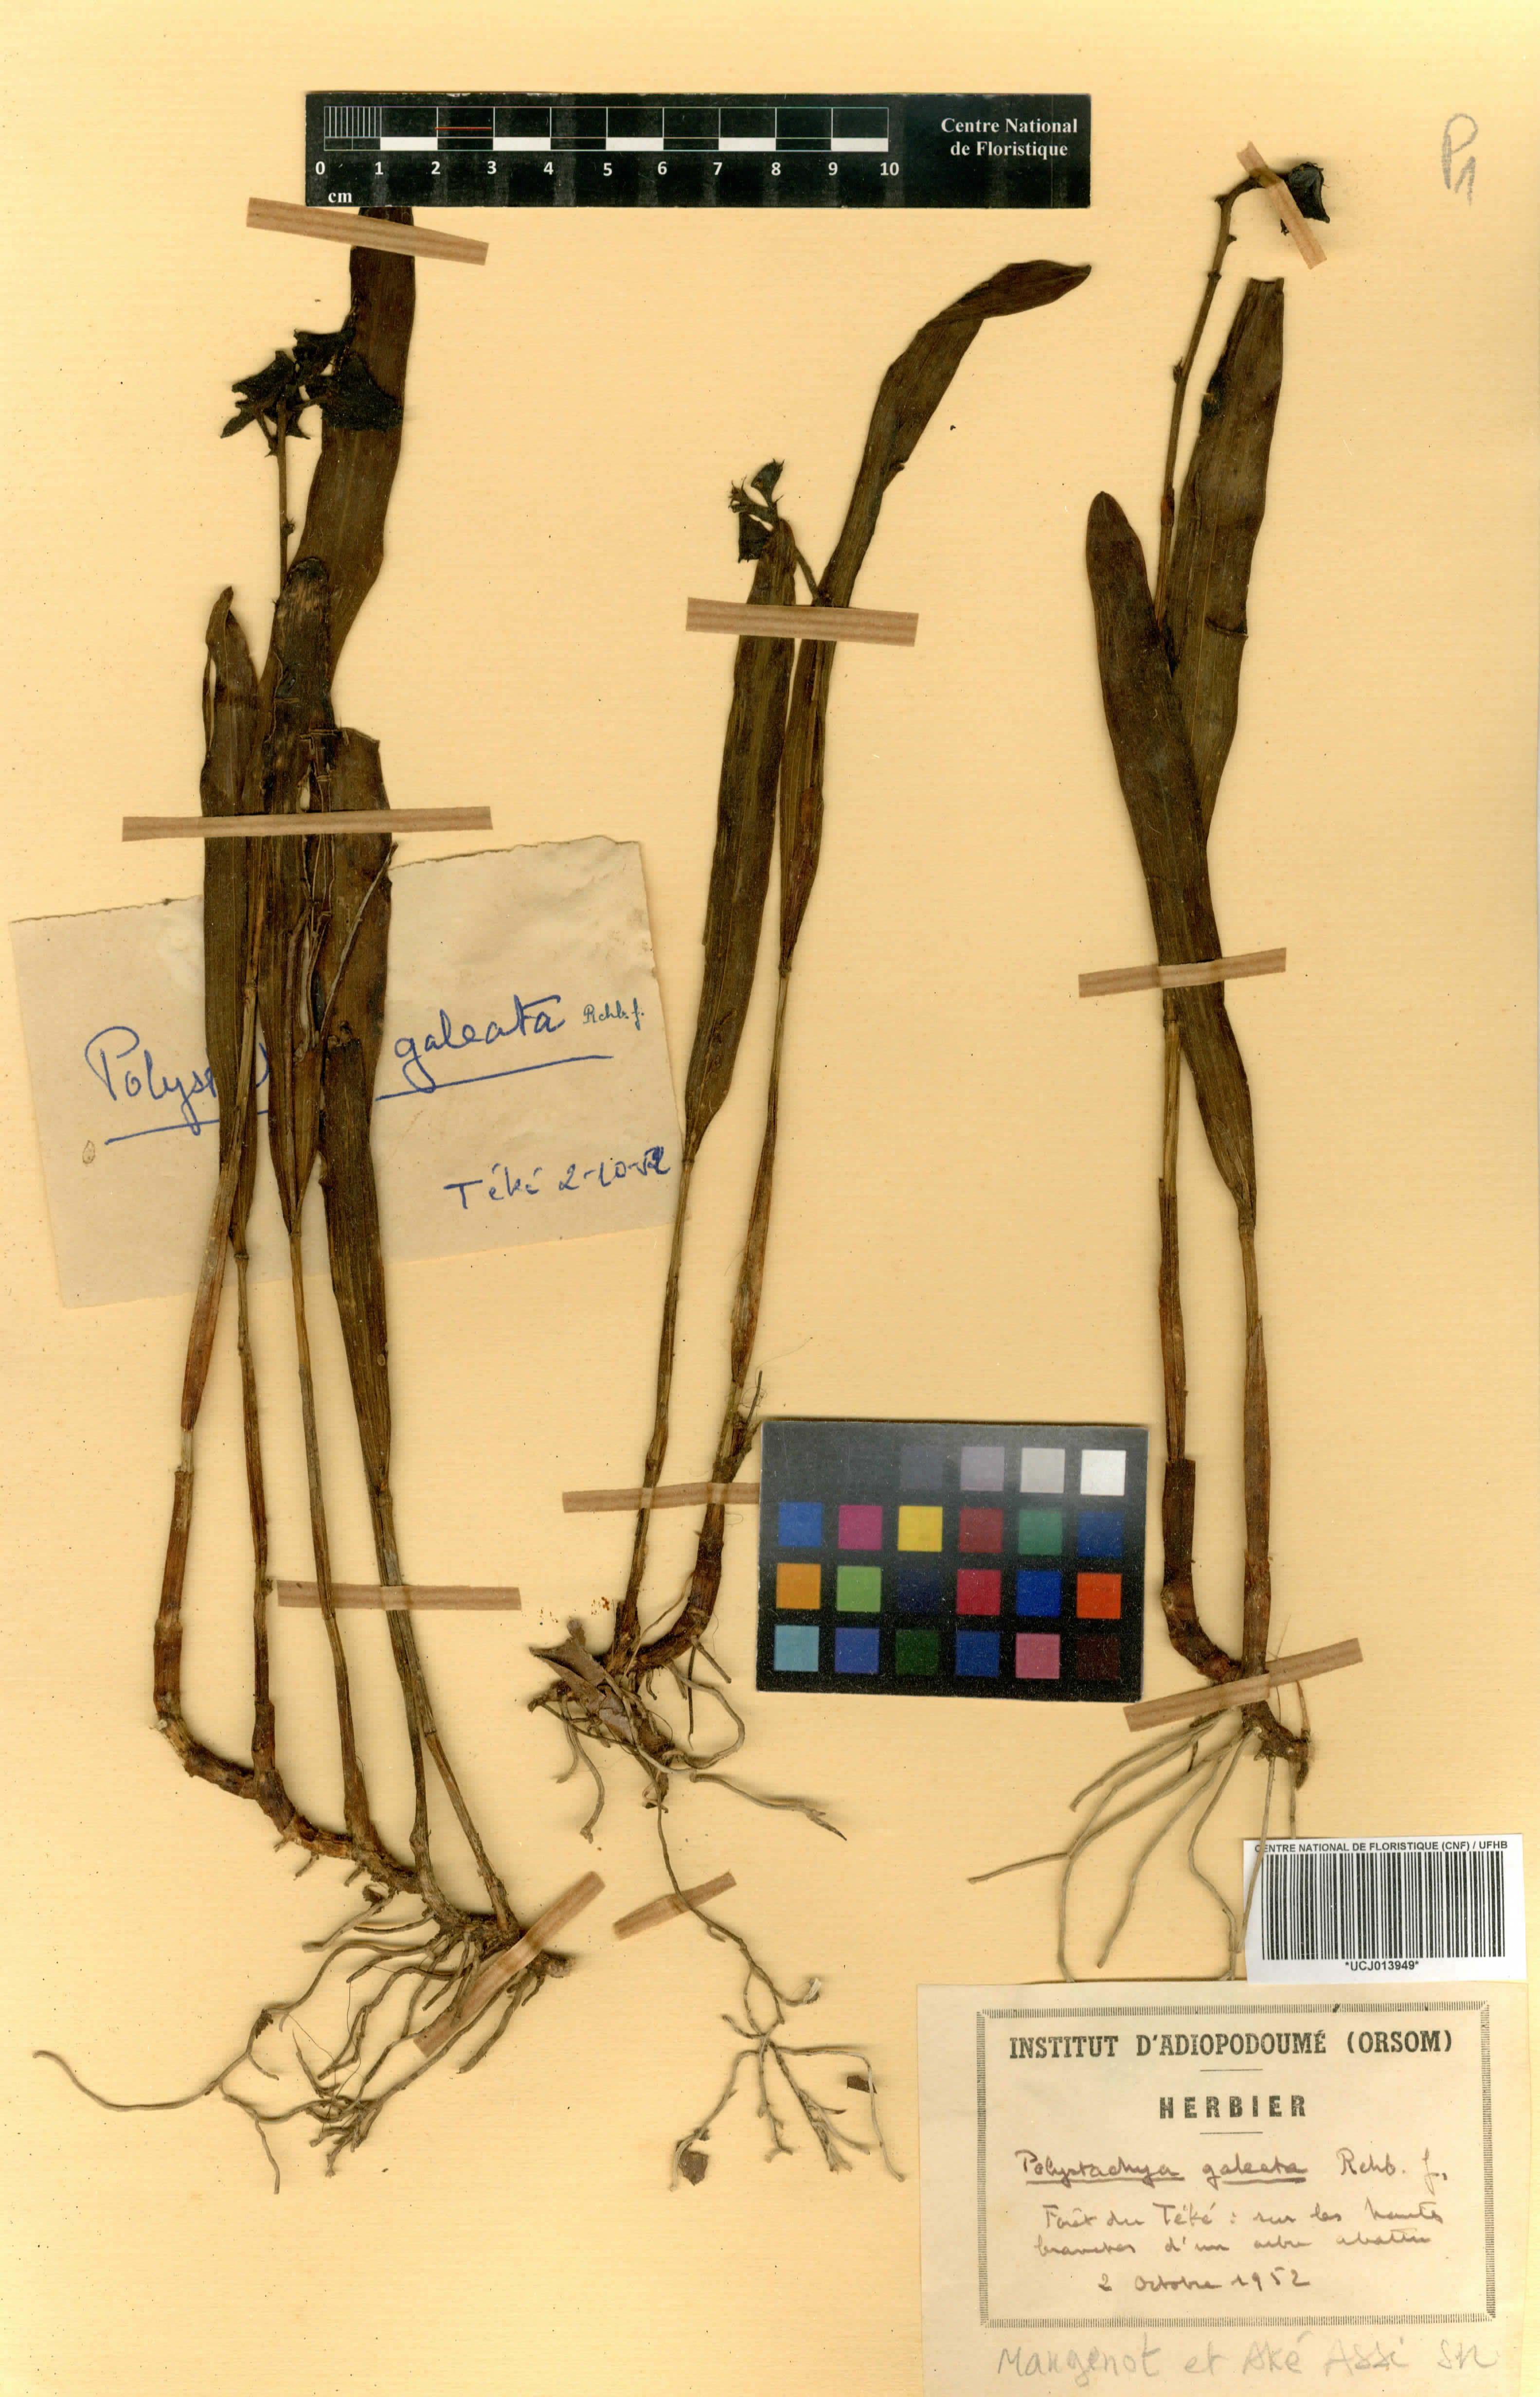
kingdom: Plantae
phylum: Tracheophyta
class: Liliopsida
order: Asparagales
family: Orchidaceae
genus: Polystachya
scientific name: Polystachya galeata
